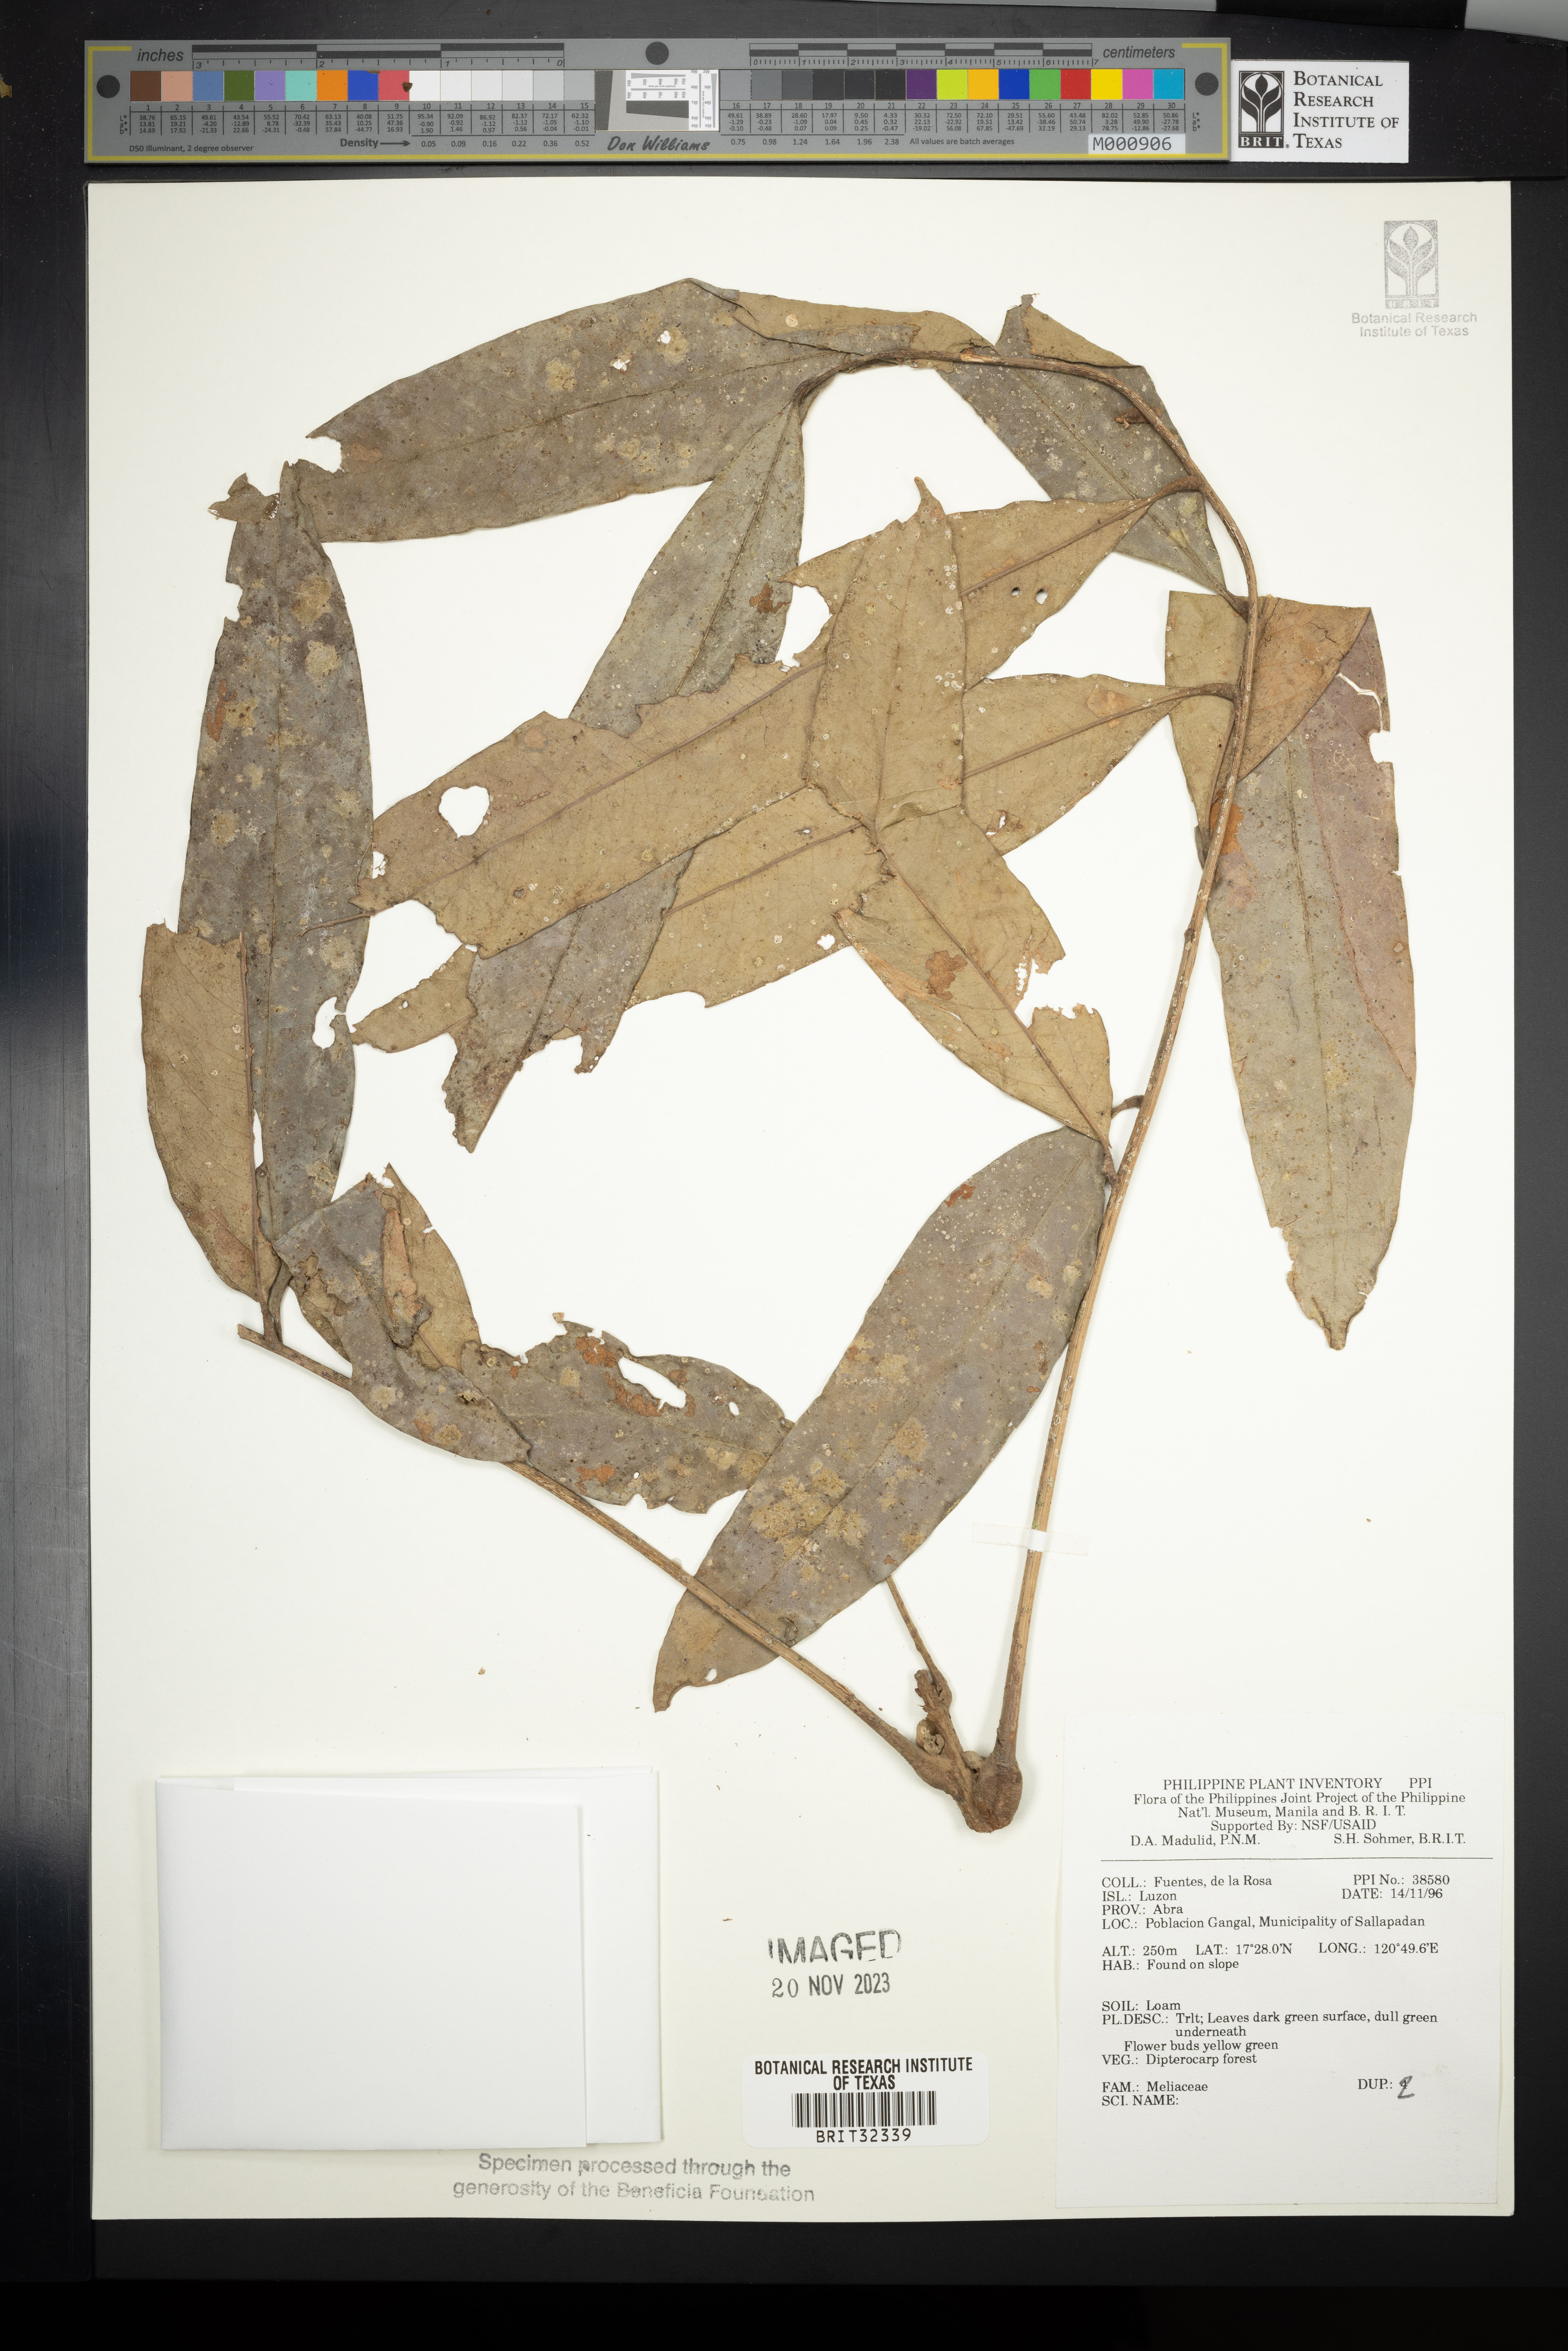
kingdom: Plantae
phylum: Tracheophyta
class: Magnoliopsida
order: Sapindales
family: Meliaceae
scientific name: Meliaceae
